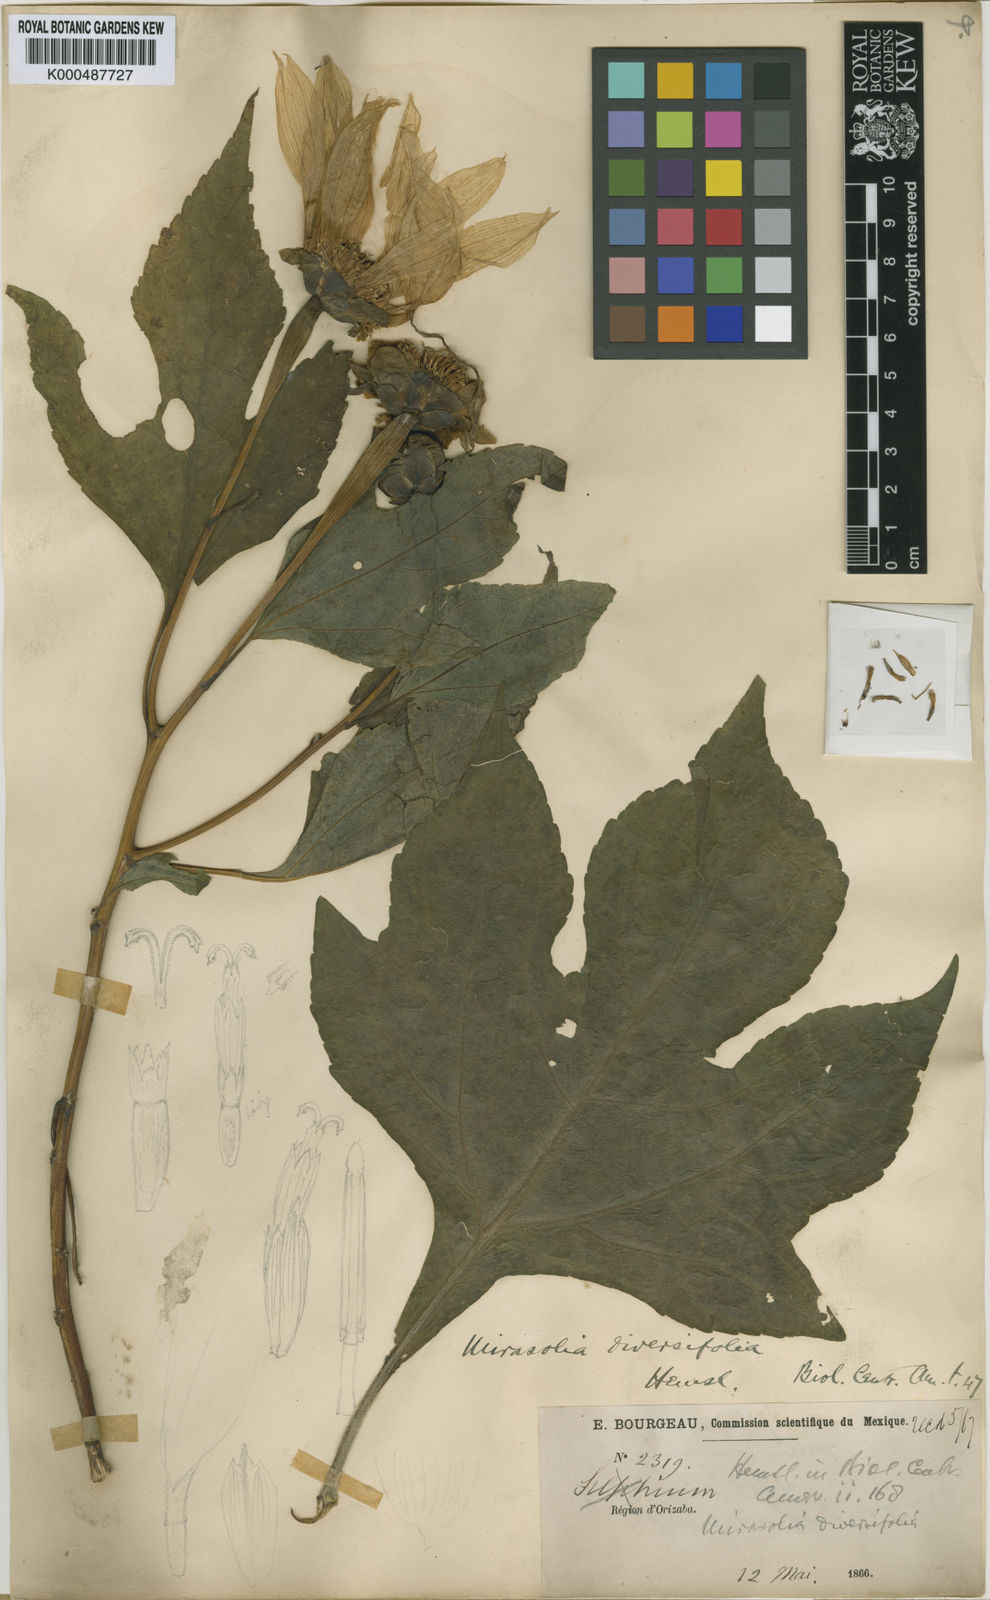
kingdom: Plantae
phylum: Tracheophyta
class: Magnoliopsida
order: Asterales
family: Asteraceae
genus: Tithonia
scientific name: Tithonia diversifolia
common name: Tree marigold
